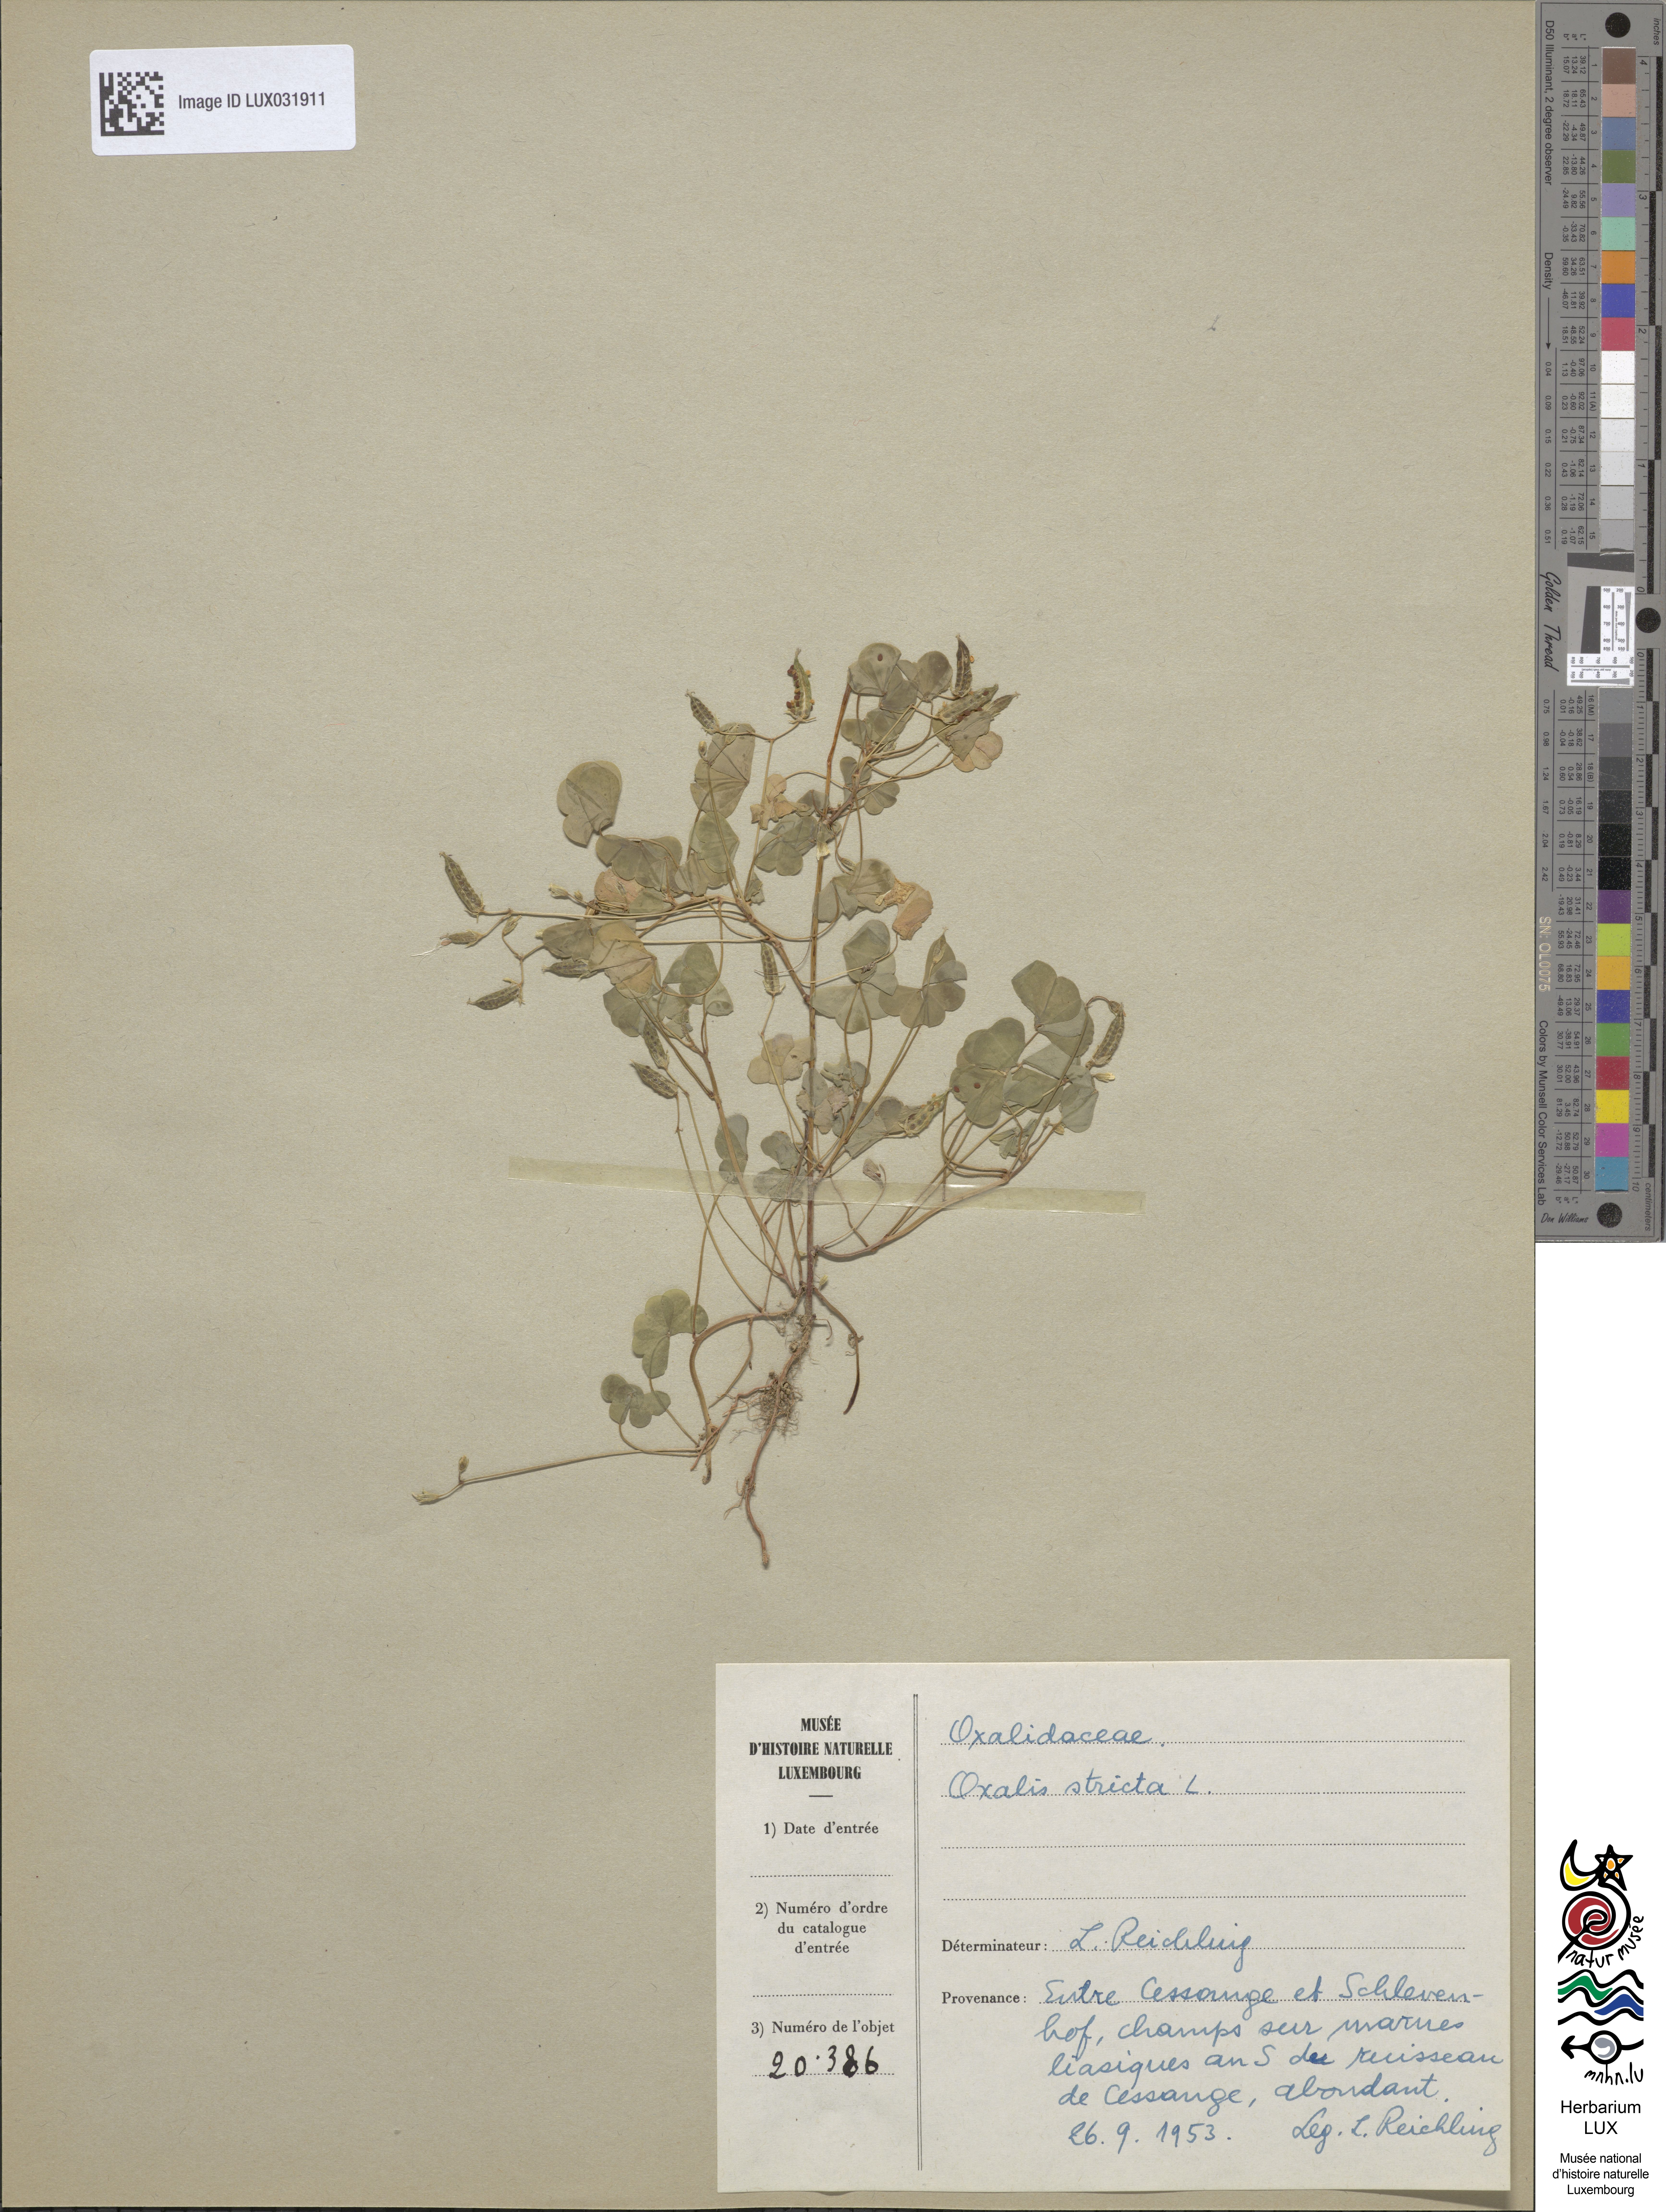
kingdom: Plantae
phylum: Tracheophyta
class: Magnoliopsida
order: Oxalidales
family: Oxalidaceae
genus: Oxalis
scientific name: Oxalis stricta
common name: Upright yellow-sorrel
